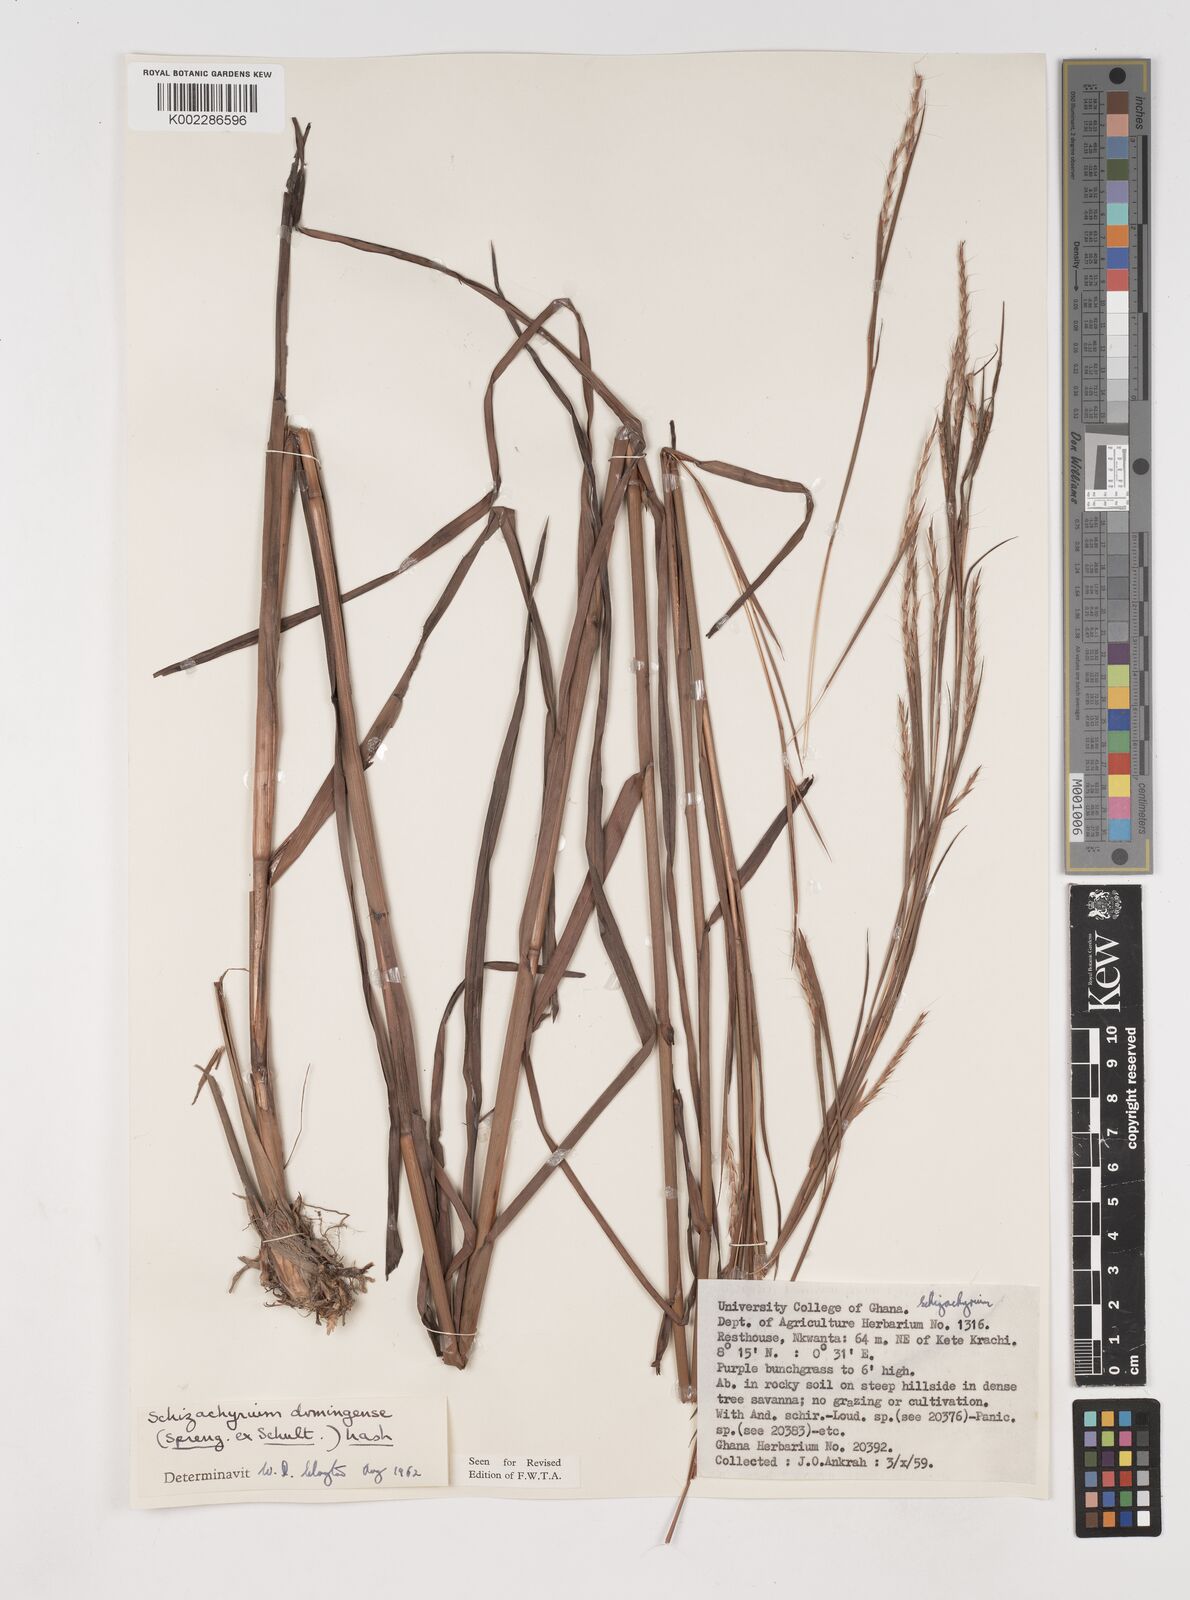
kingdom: Plantae
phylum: Tracheophyta
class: Liliopsida
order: Poales
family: Poaceae
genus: Schizachyrium
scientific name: Schizachyrium sanguineum
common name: Crimson bluestem
